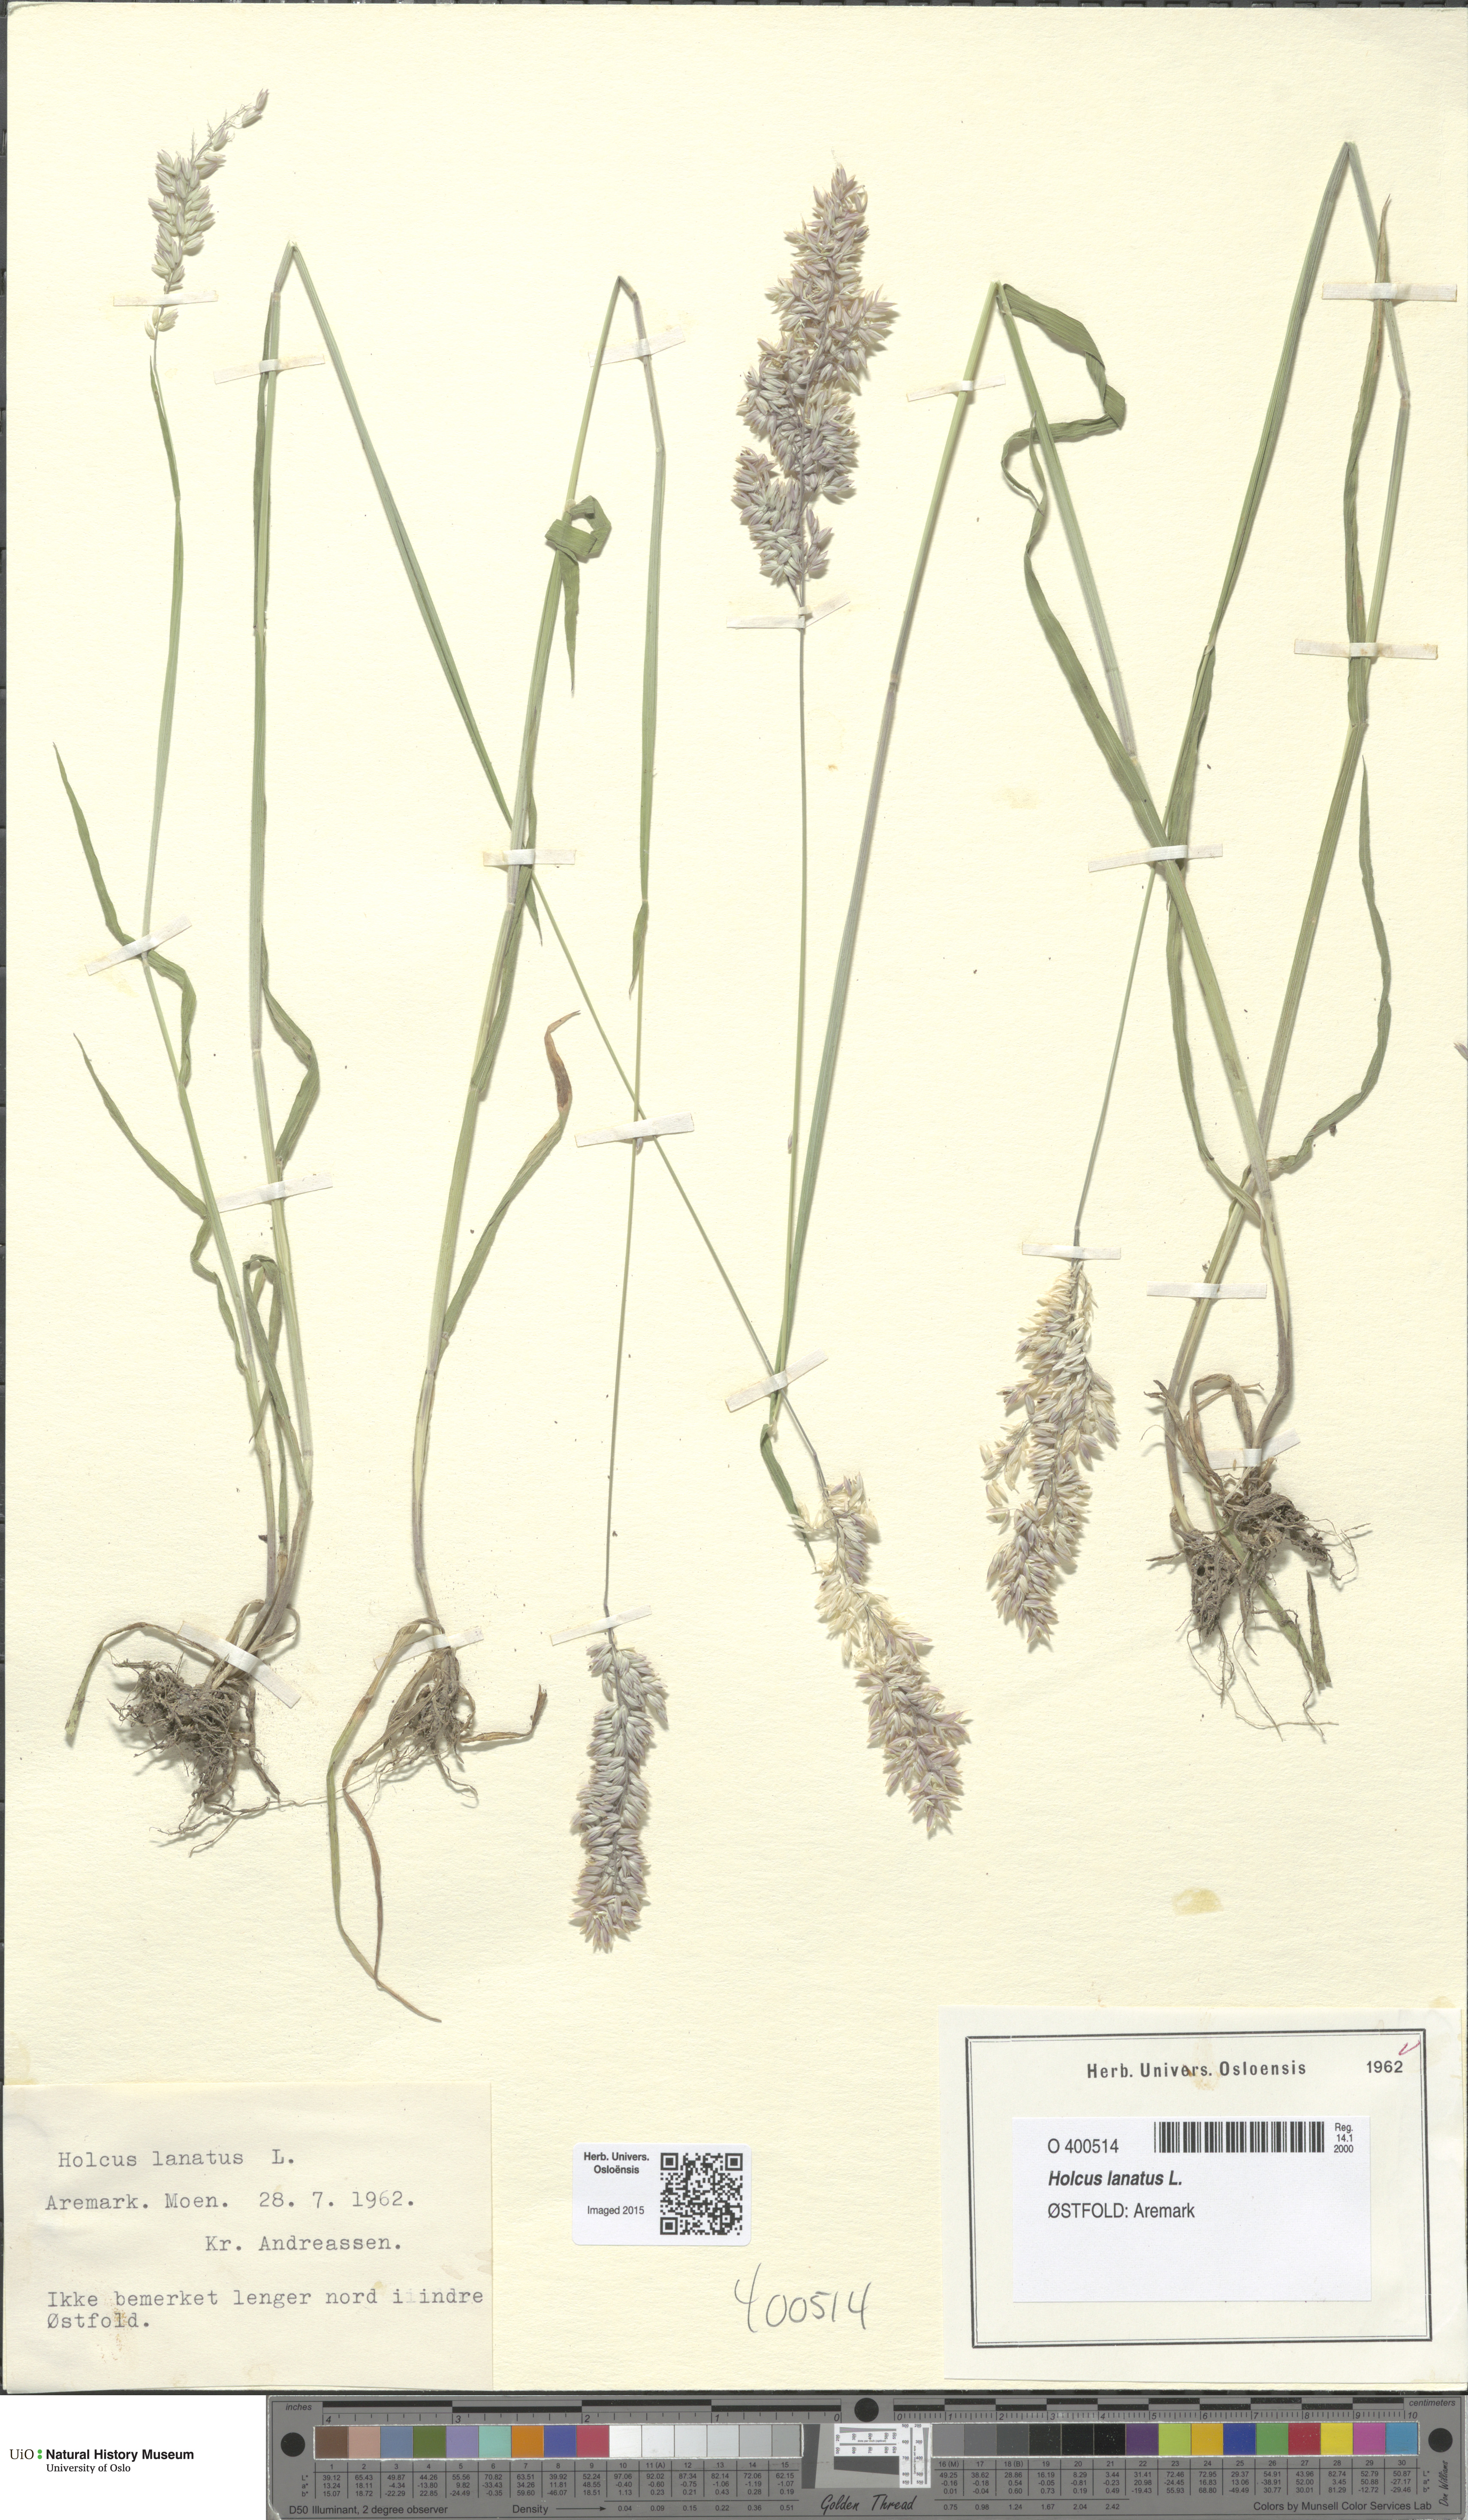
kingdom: Plantae
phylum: Tracheophyta
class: Liliopsida
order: Poales
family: Poaceae
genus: Holcus
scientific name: Holcus lanatus
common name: Yorkshire-fog
